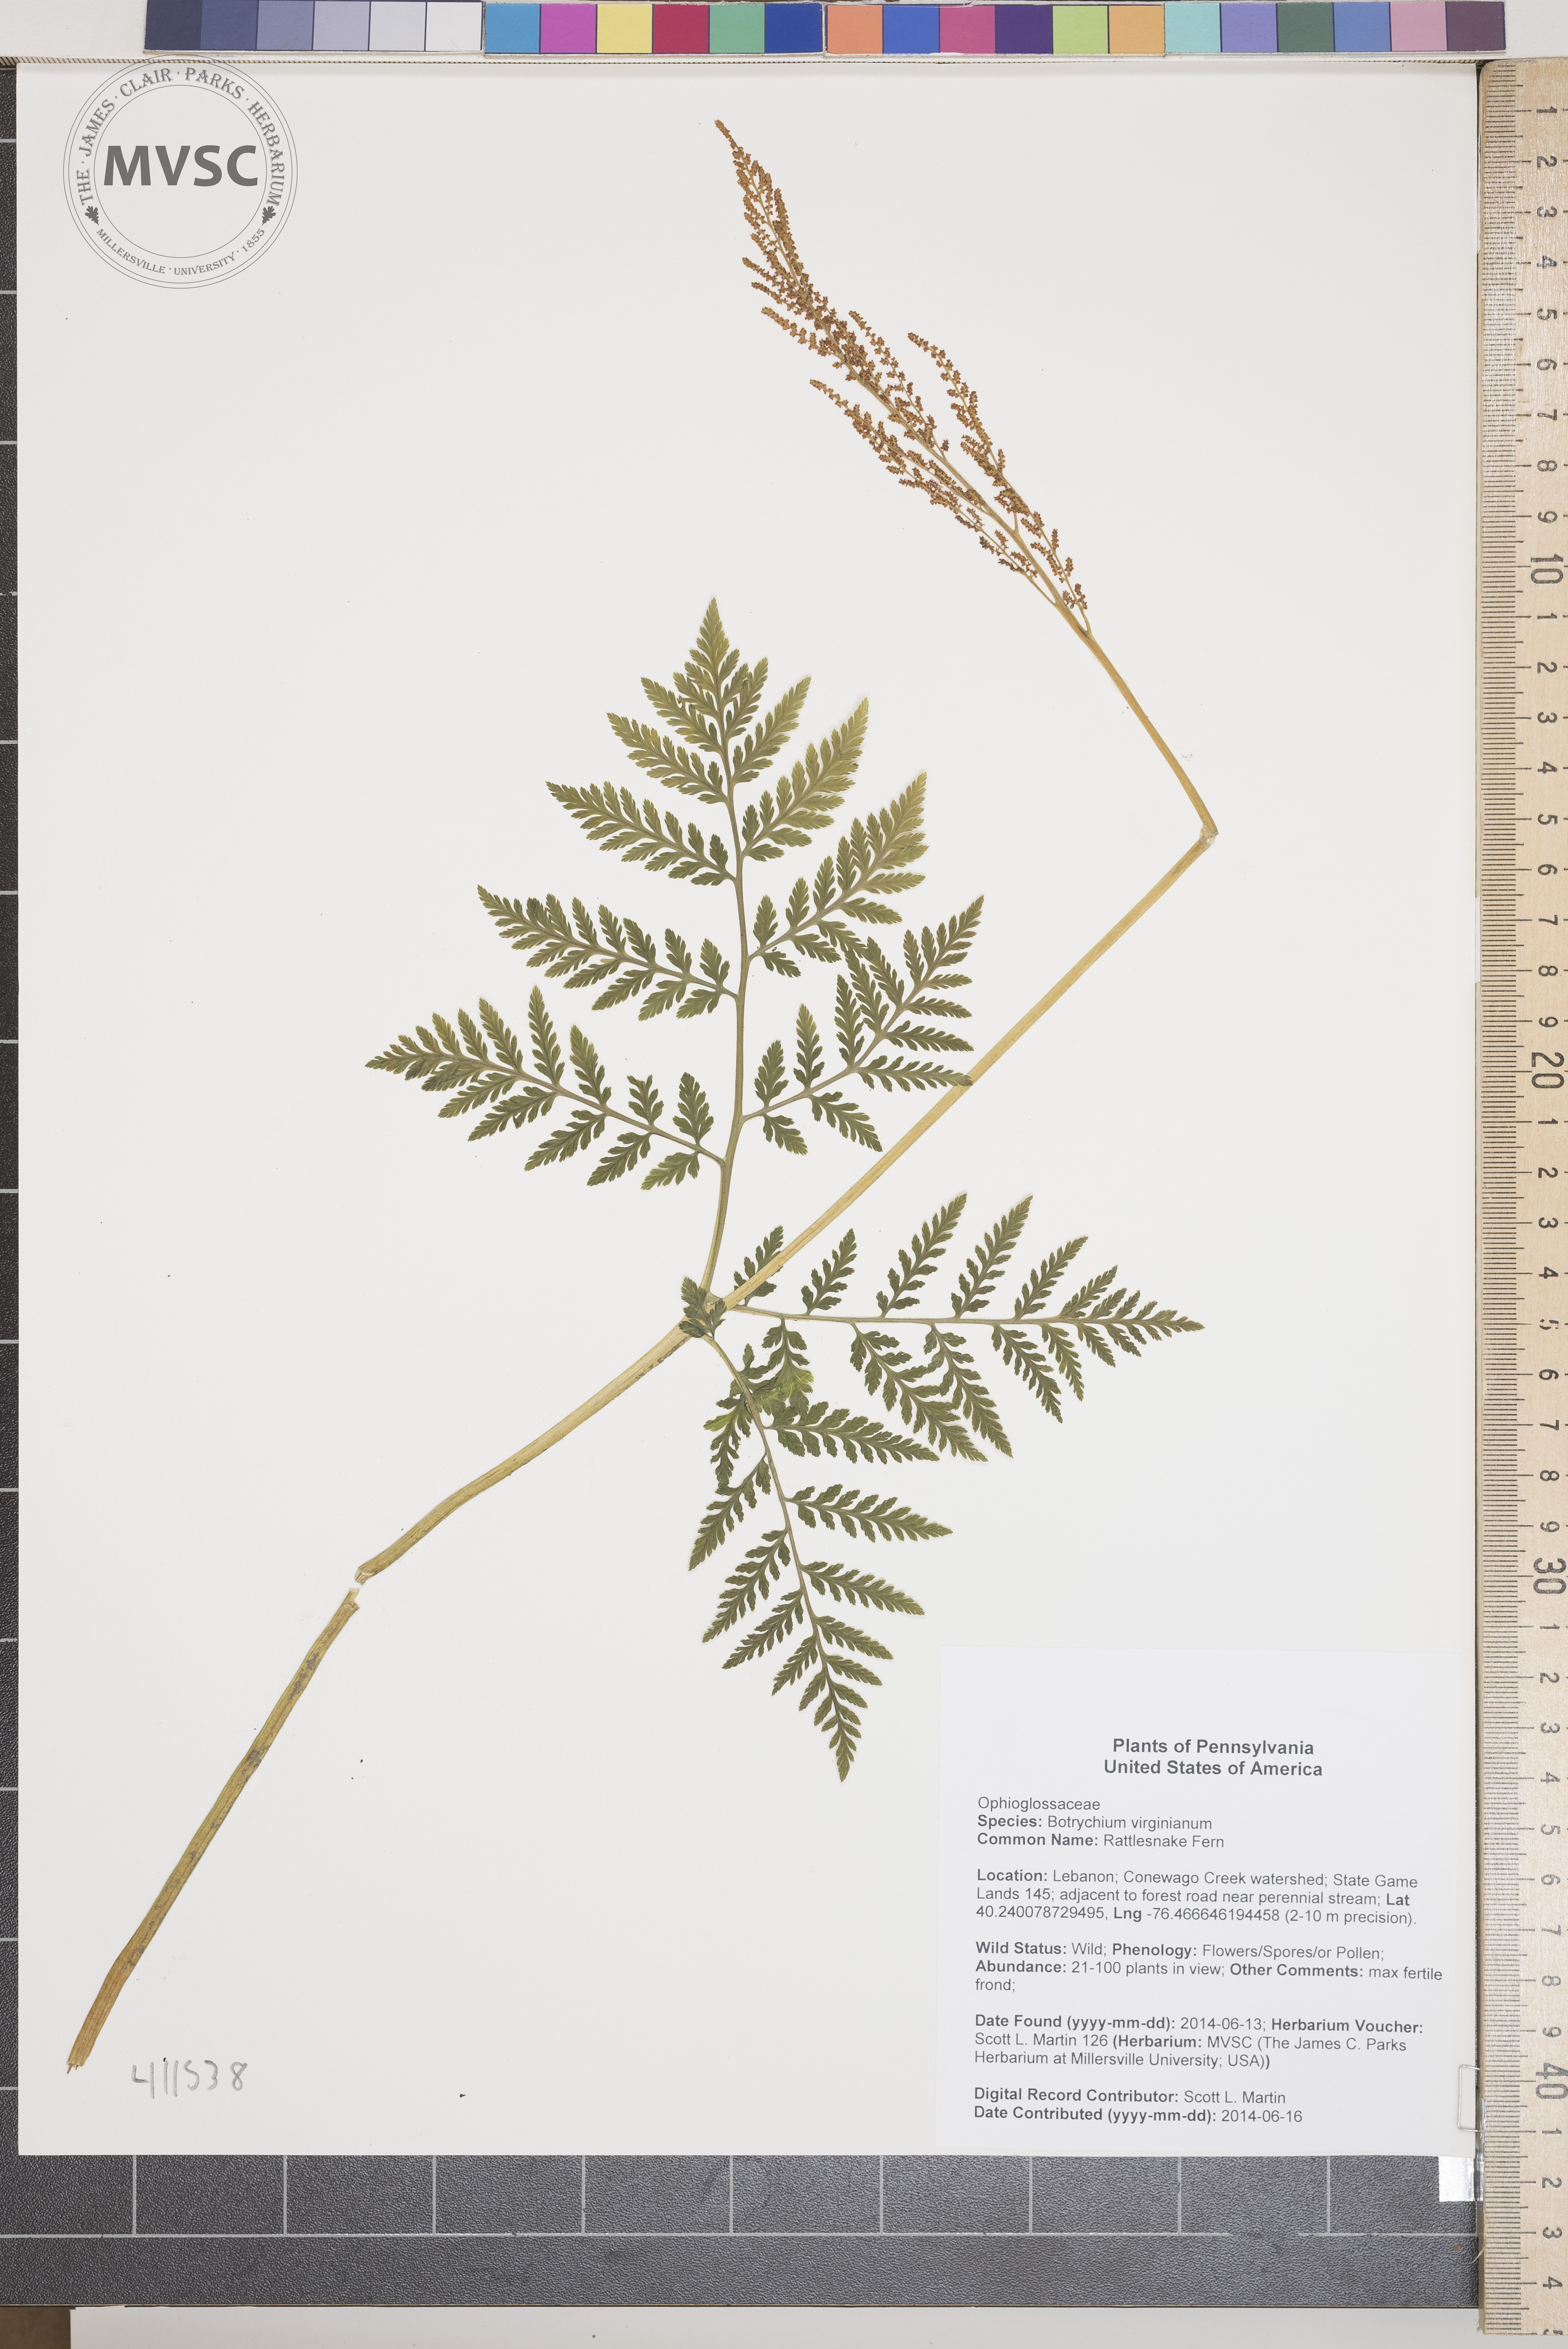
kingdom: Plantae
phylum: Tracheophyta
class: Polypodiopsida
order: Ophioglossales
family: Ophioglossaceae
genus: Botrychium
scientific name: Botrychium virginianum
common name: Rattlesnake Fern
